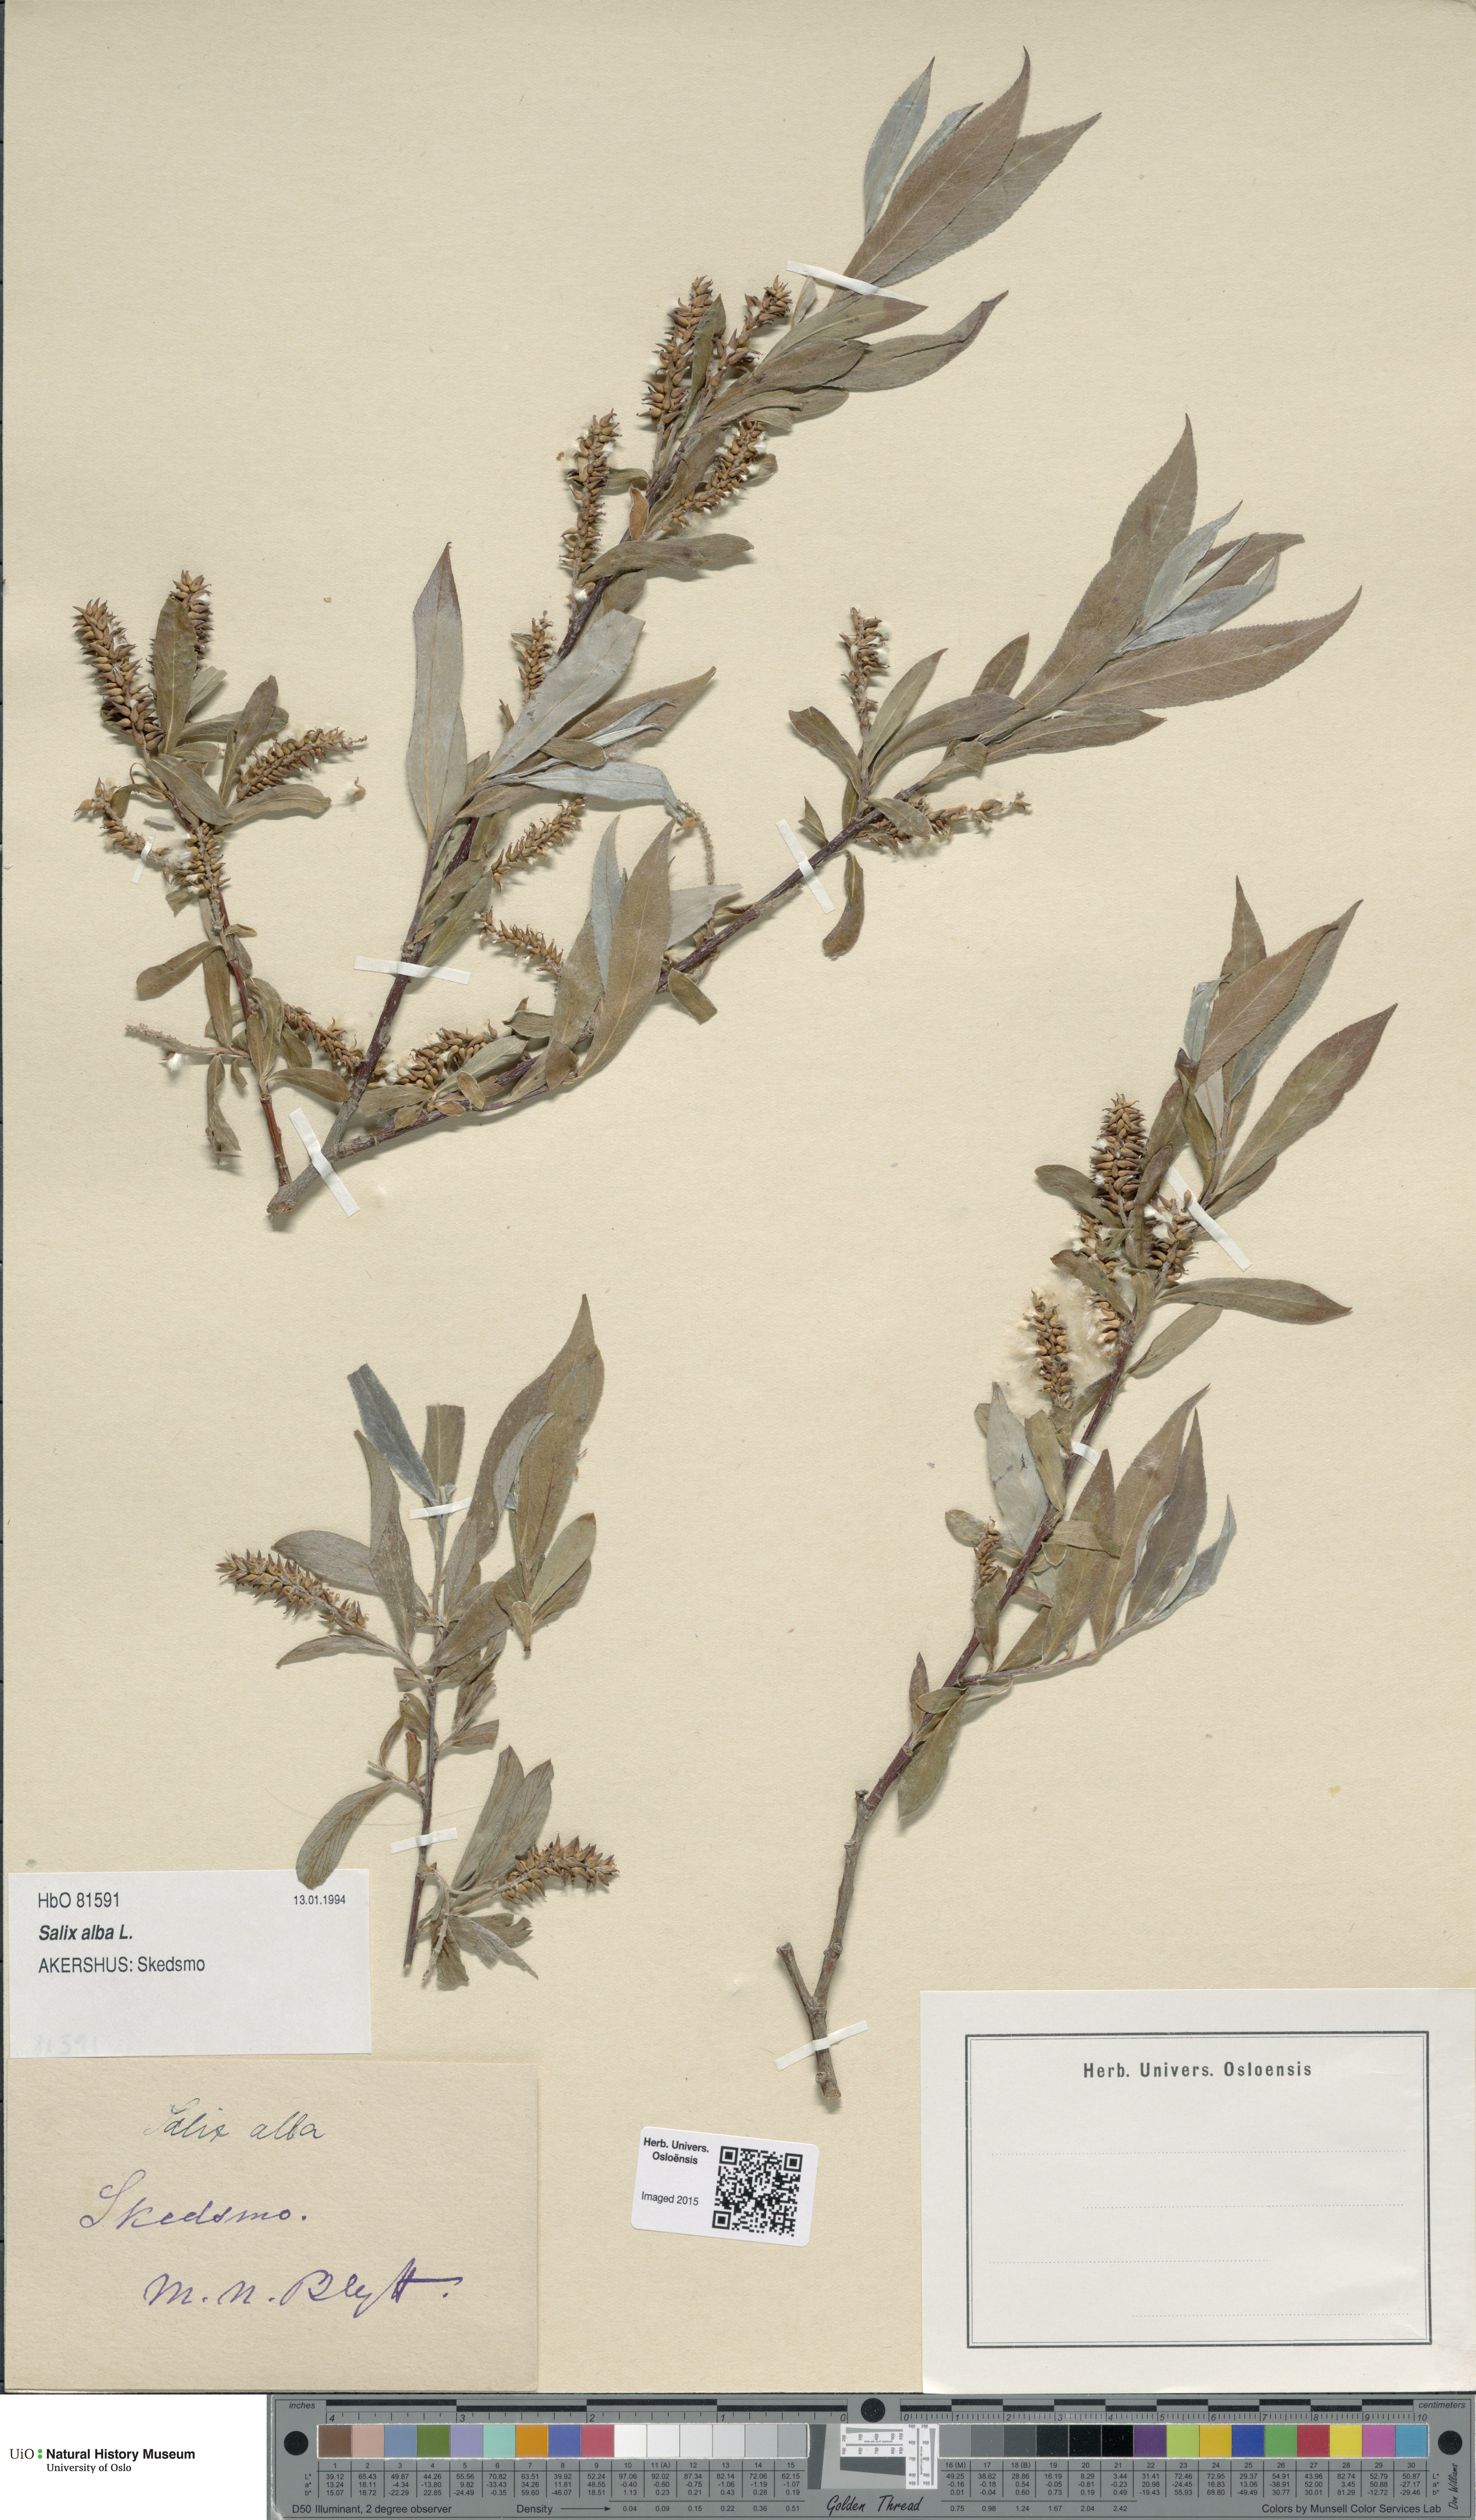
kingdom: Plantae
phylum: Tracheophyta
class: Magnoliopsida
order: Malpighiales
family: Salicaceae
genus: Salix
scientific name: Salix alba
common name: White willow
